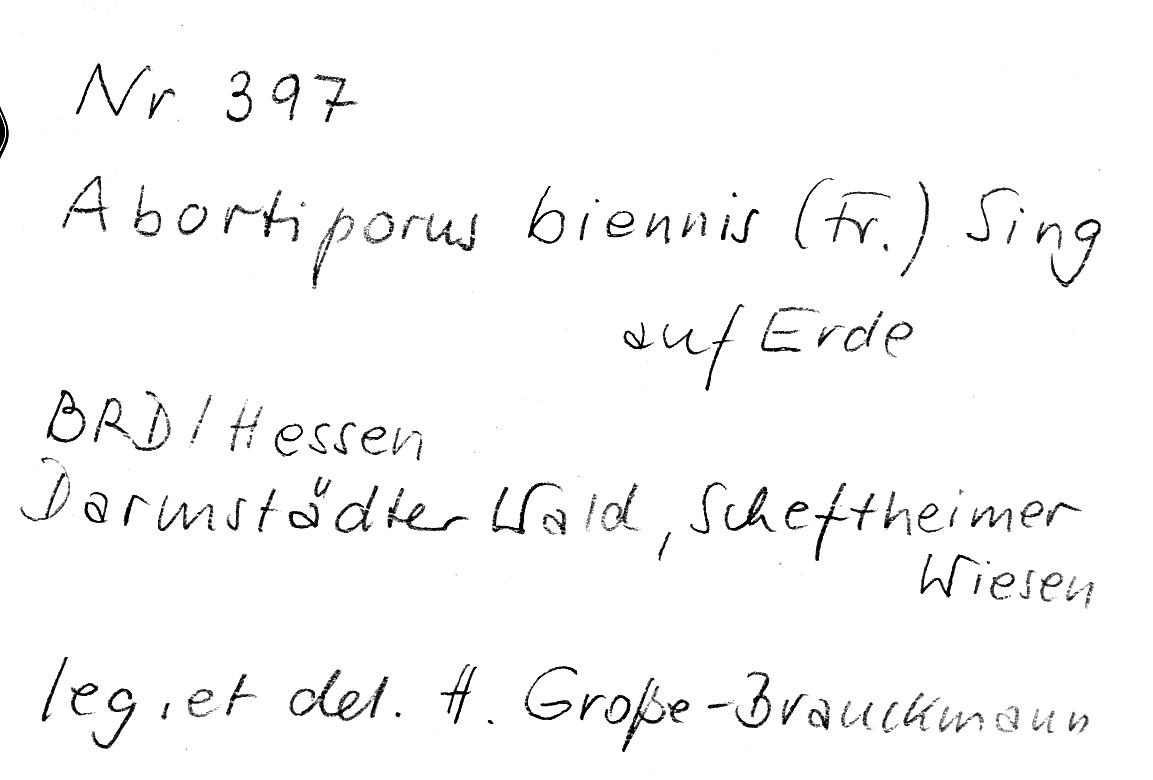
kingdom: Fungi
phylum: Basidiomycota
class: Agaricomycetes
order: Polyporales
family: Podoscyphaceae
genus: Abortiporus
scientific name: Abortiporus biennis
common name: Blushing rosette
